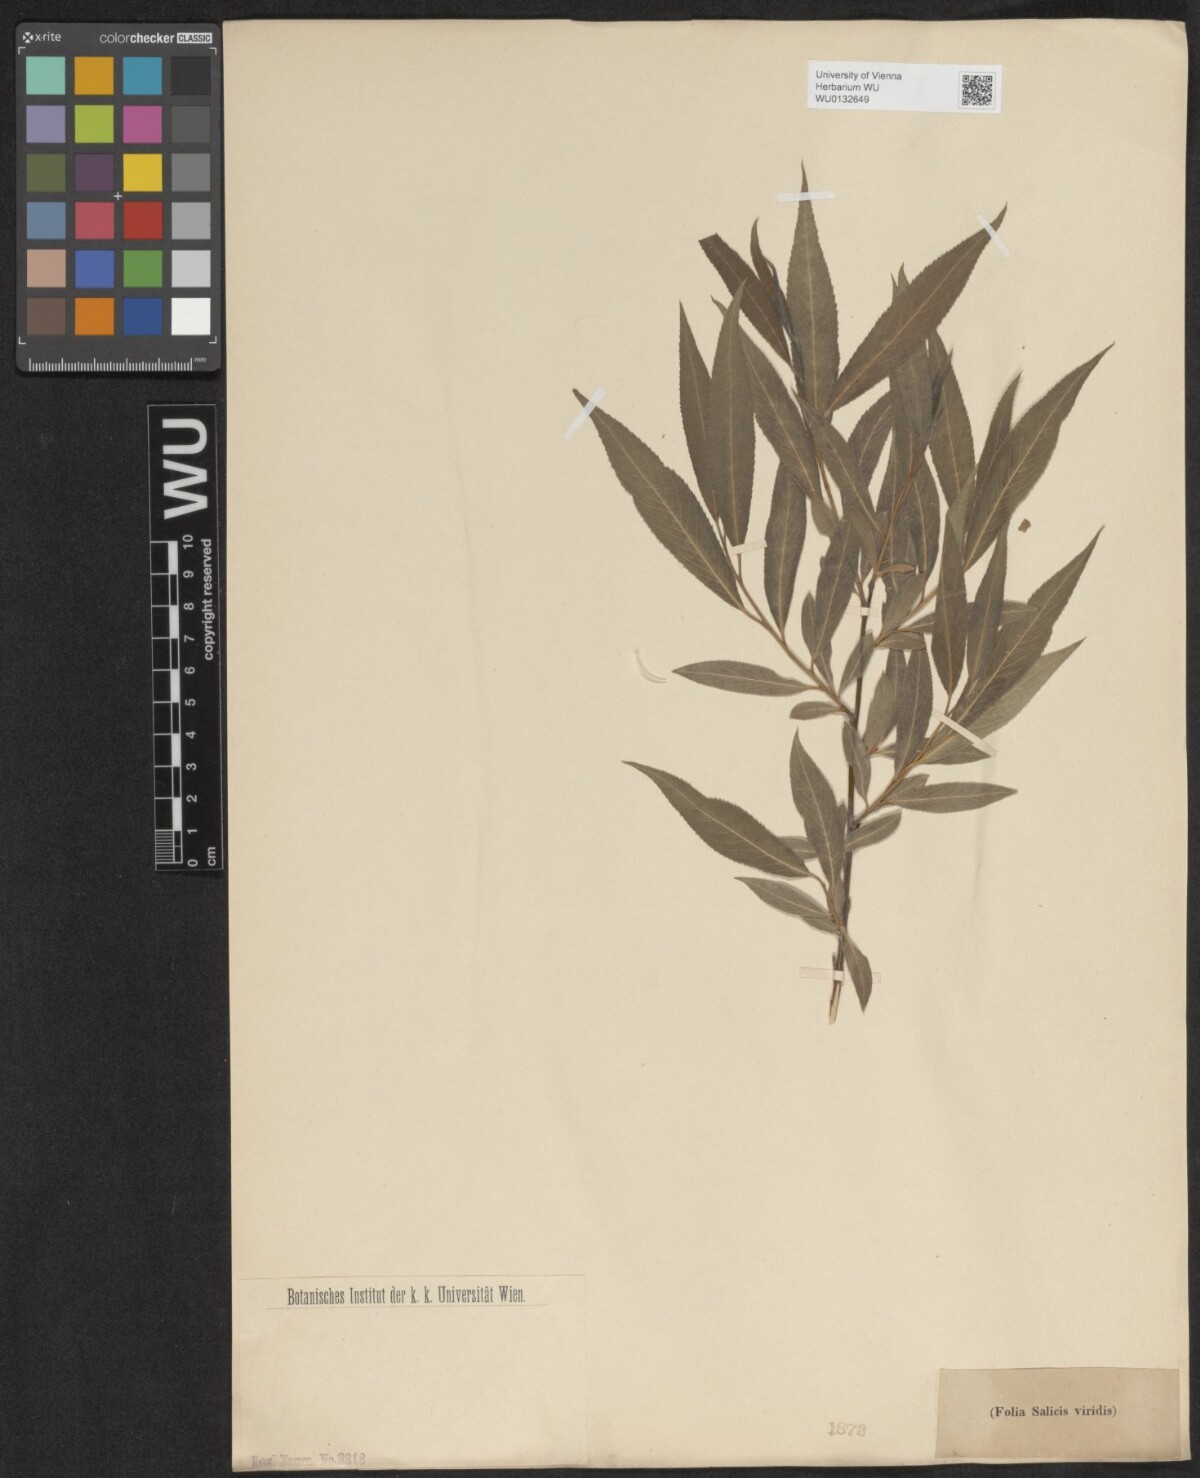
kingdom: Plantae
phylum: Tracheophyta
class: Magnoliopsida
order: Malpighiales
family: Salicaceae
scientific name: Salicaceae
